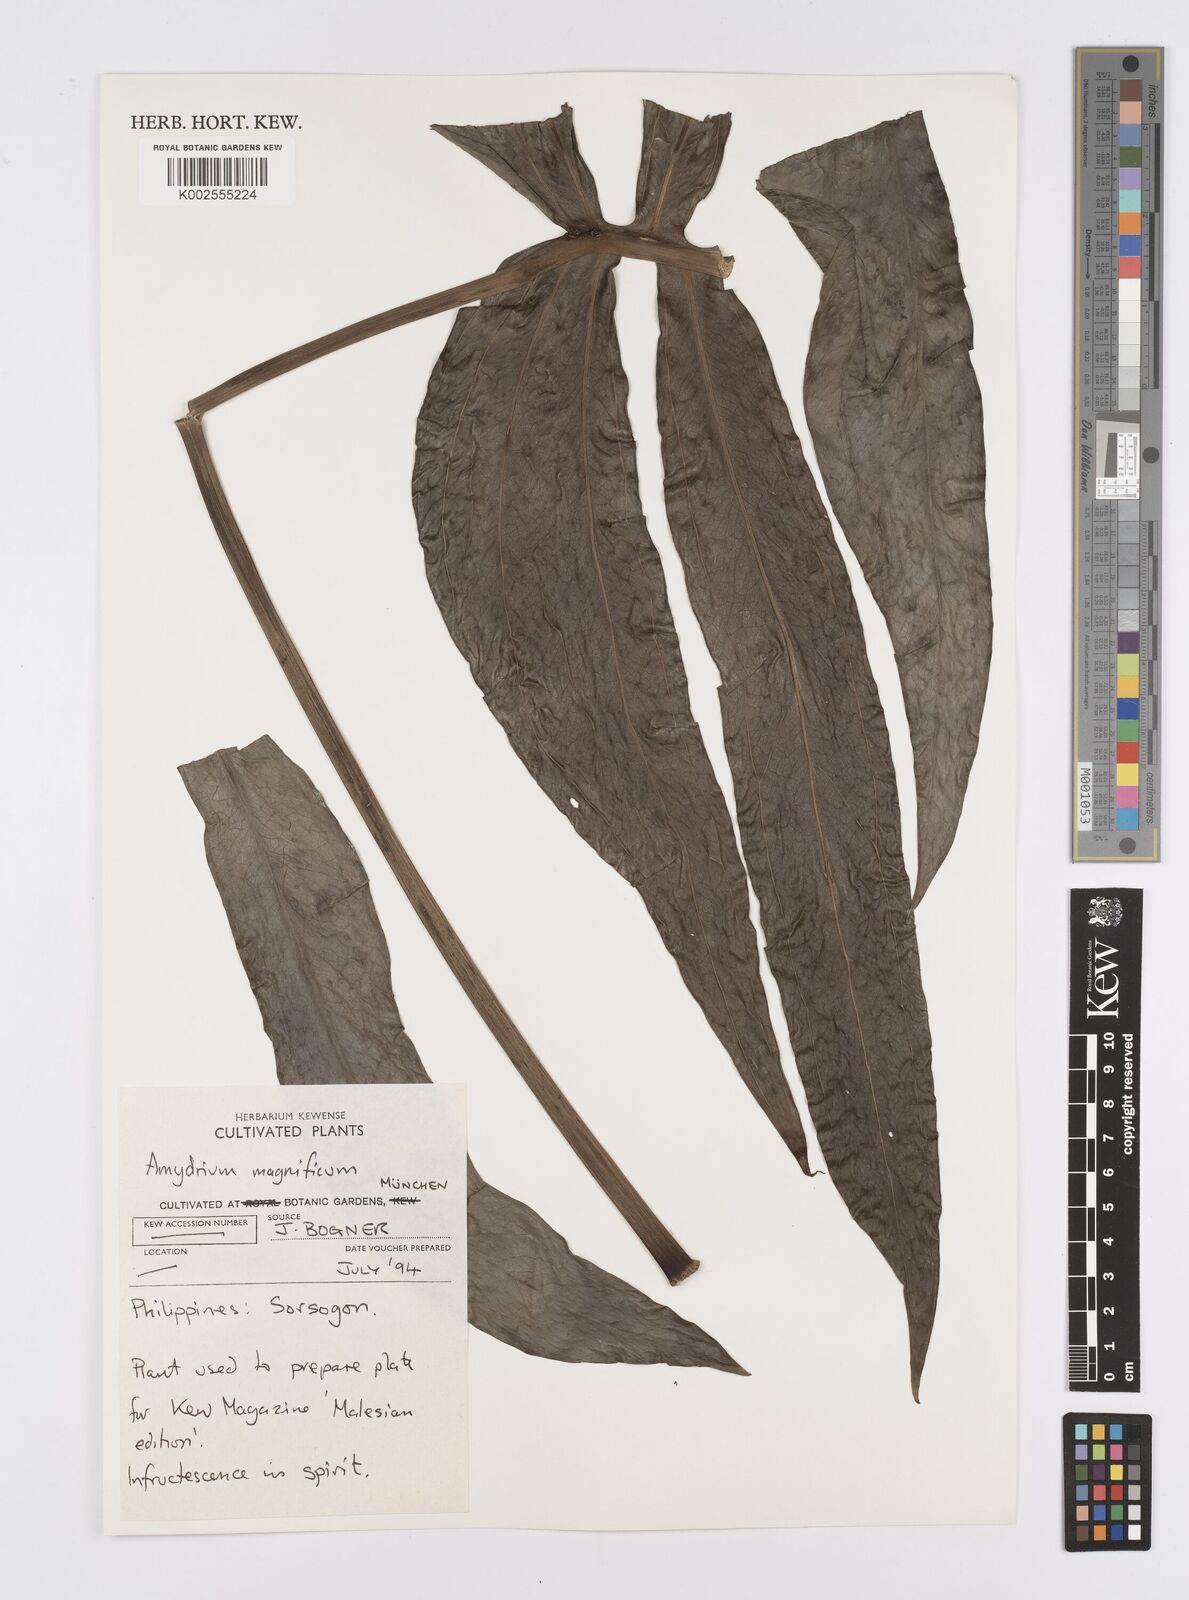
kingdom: Plantae
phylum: Tracheophyta
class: Liliopsida
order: Alismatales
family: Araceae
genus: Amydrium
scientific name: Amydrium zippelianum
